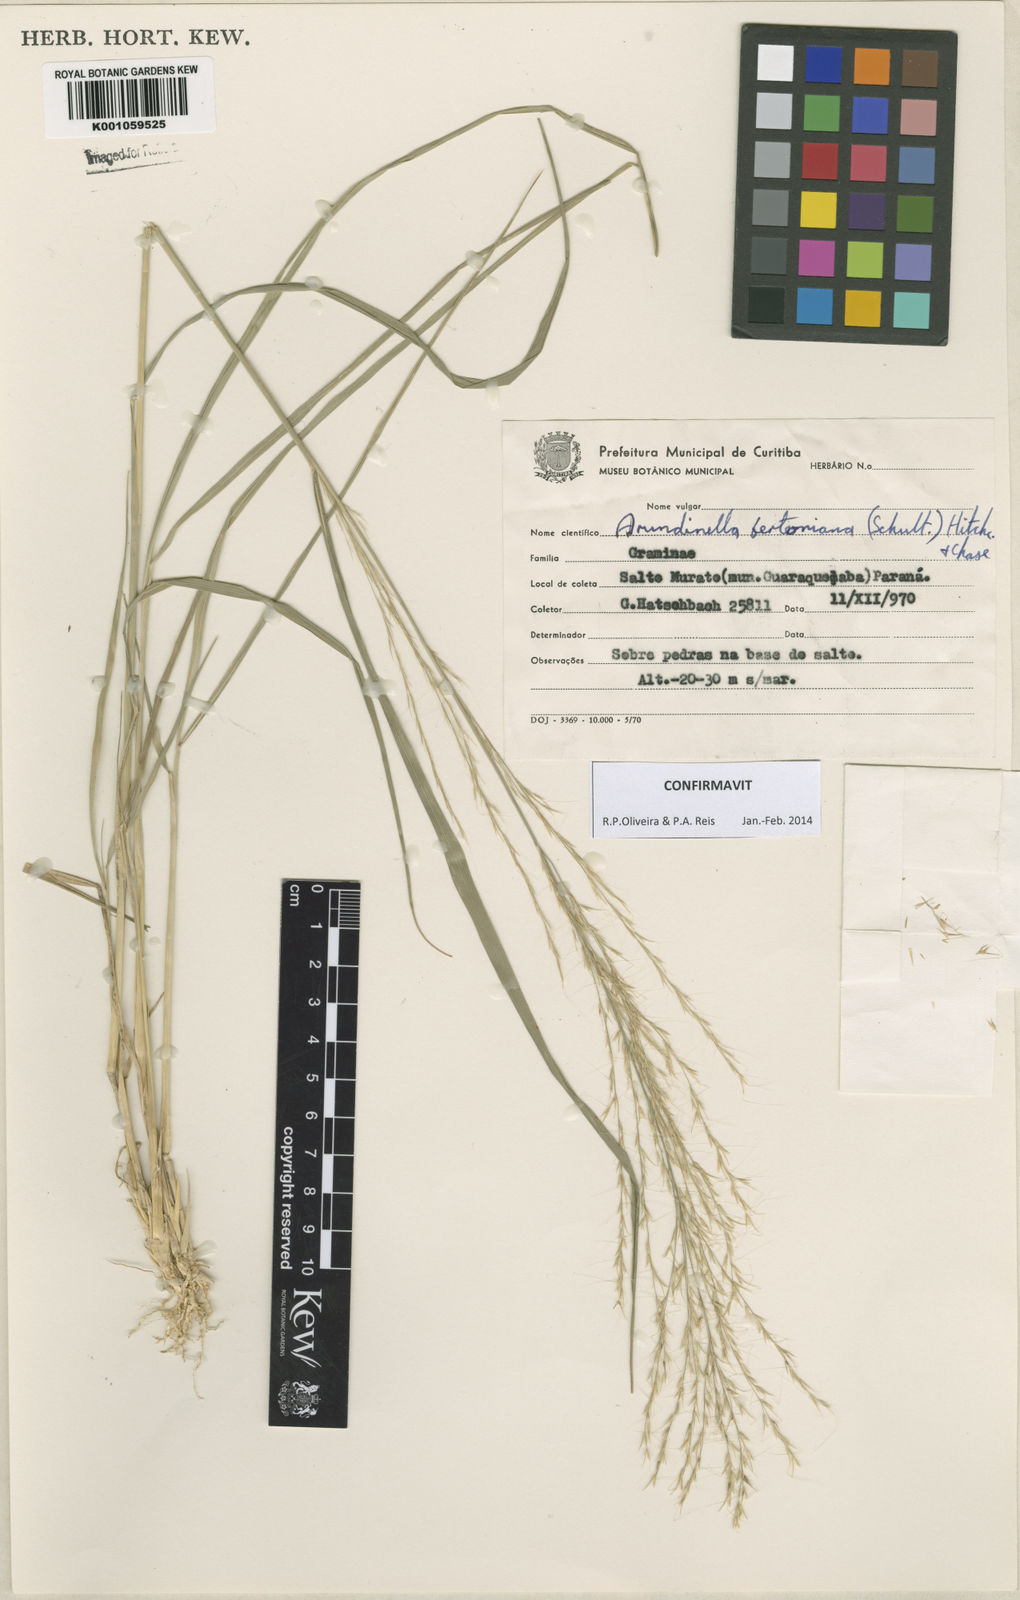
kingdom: Plantae
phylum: Tracheophyta
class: Liliopsida
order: Poales
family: Poaceae
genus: Arundinella
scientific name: Arundinella berteroniana
